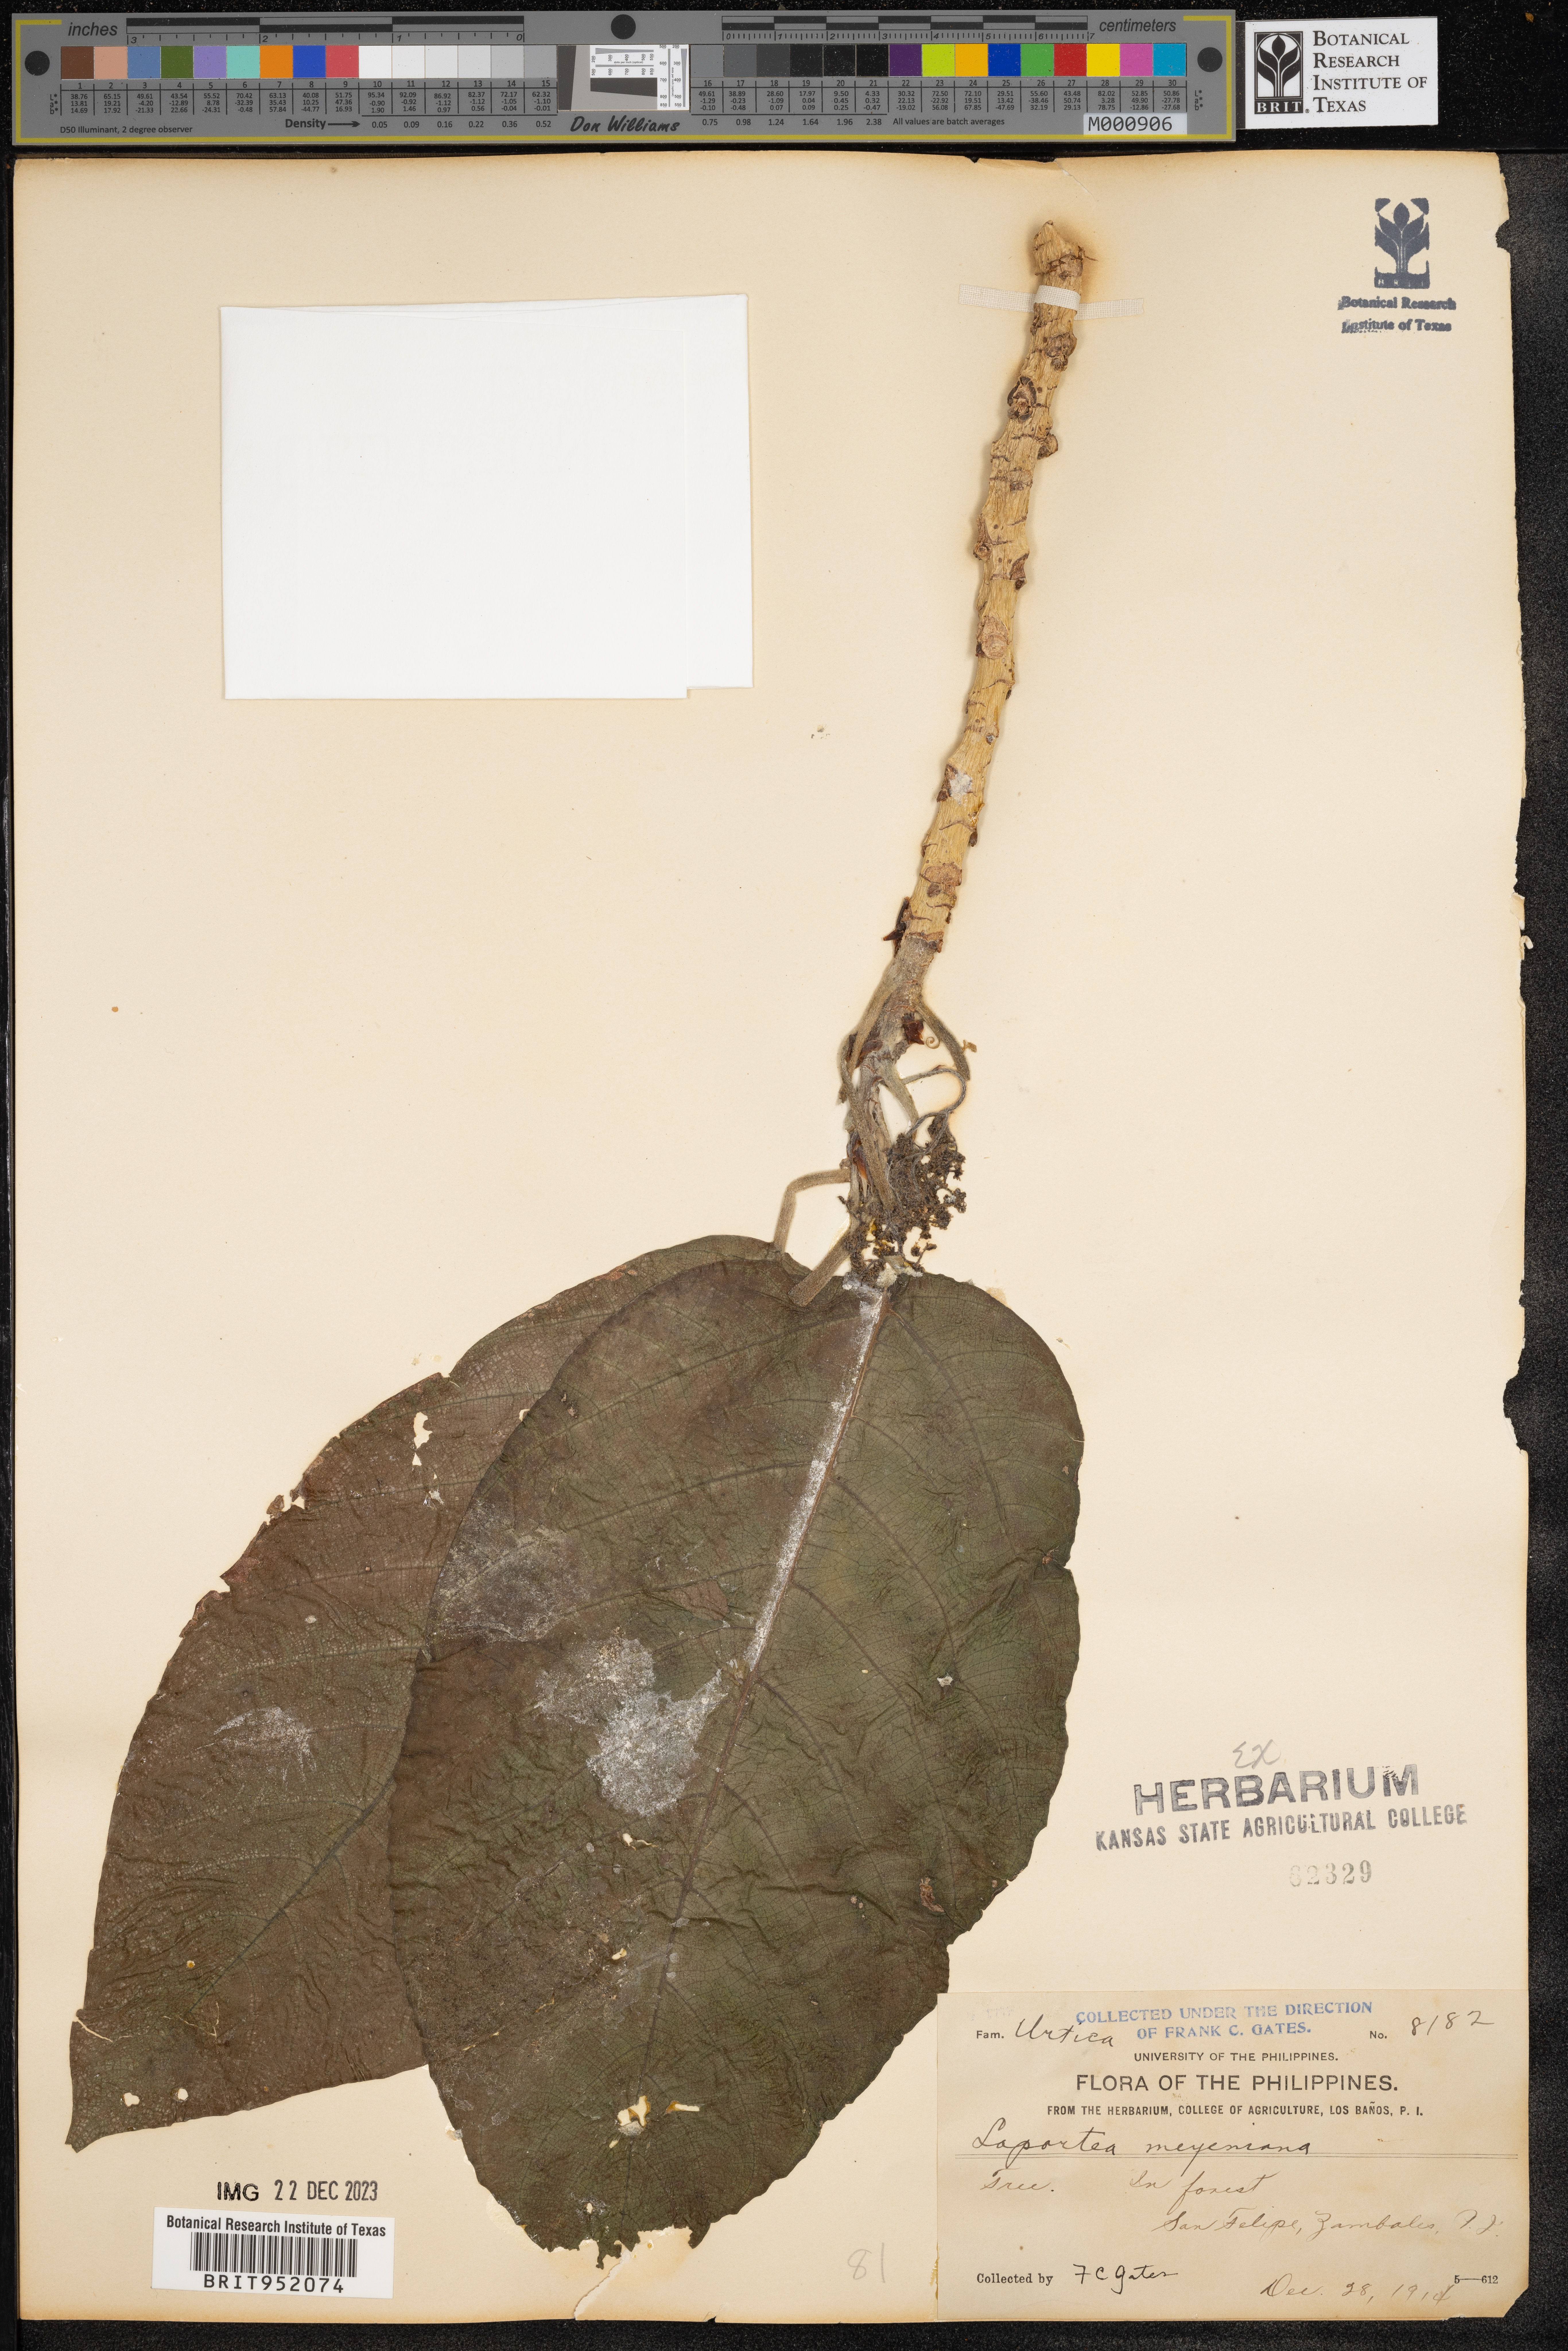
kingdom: Plantae
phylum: Tracheophyta
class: Magnoliopsida
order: Rosales
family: Urticaceae
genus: Laportea
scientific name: Laportea
